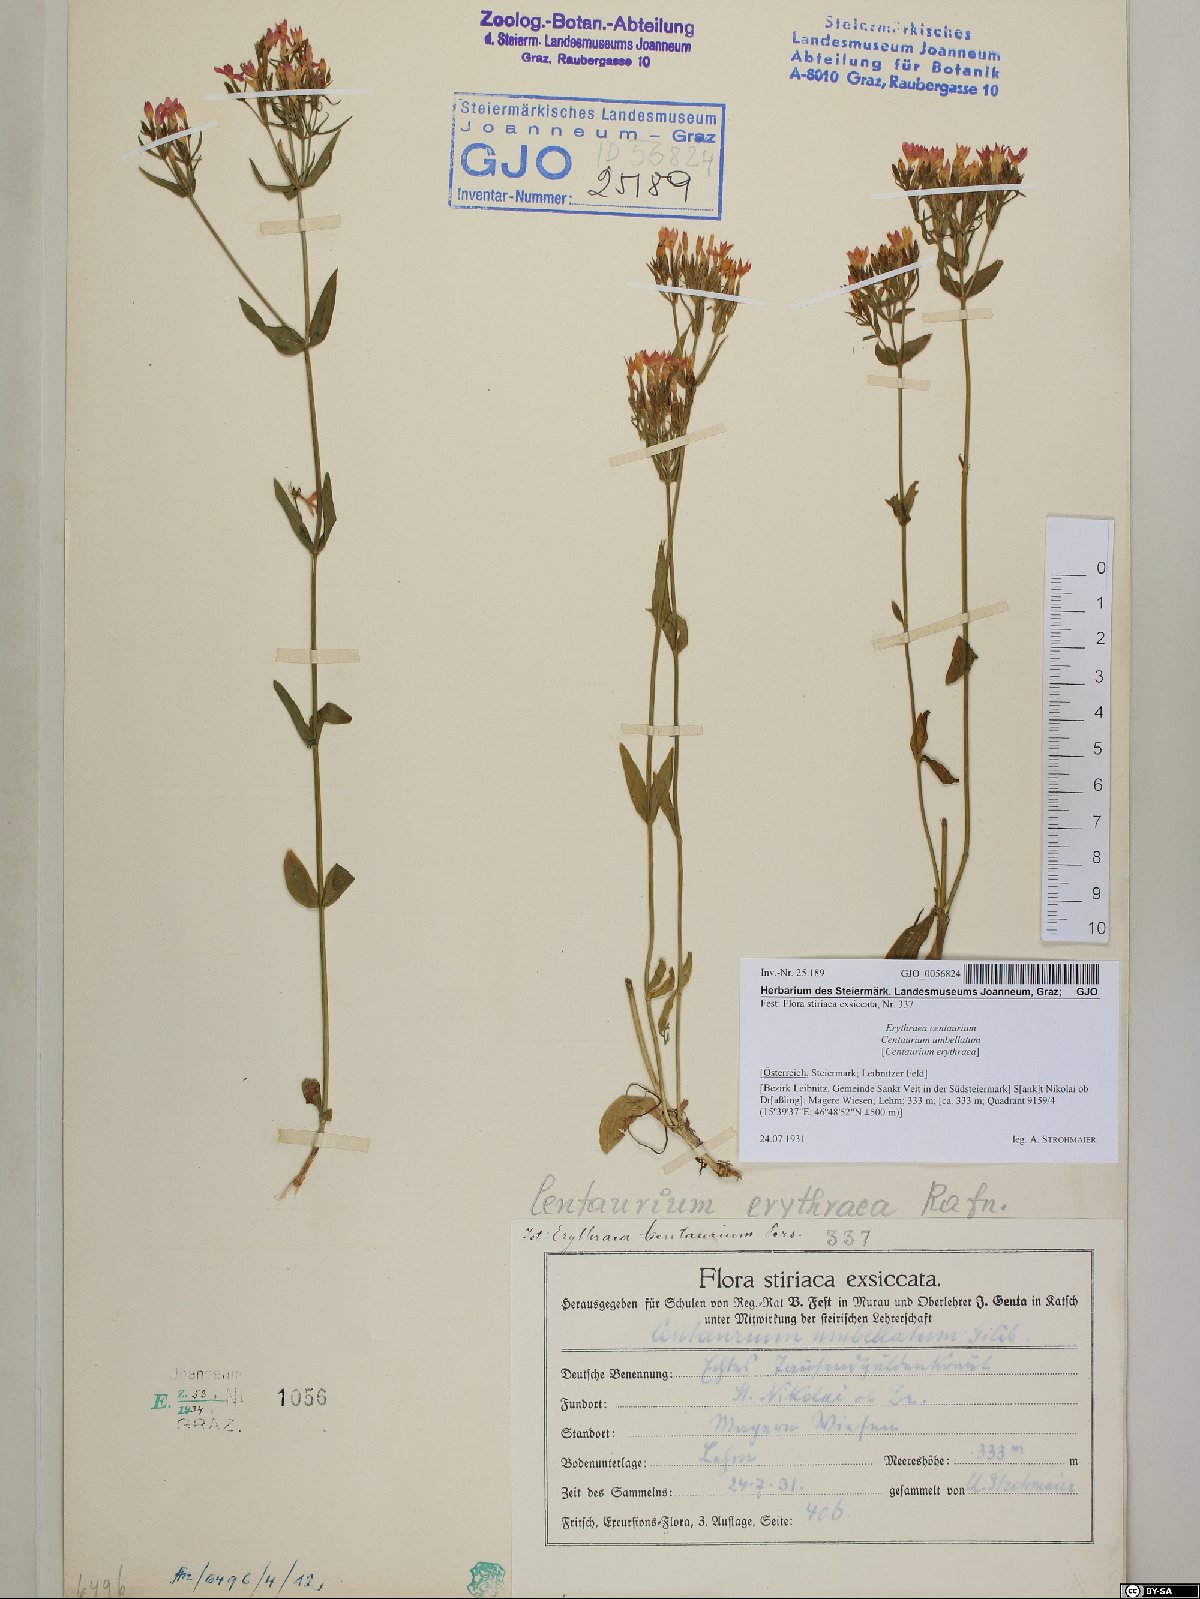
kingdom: Plantae
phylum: Tracheophyta
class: Magnoliopsida
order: Gentianales
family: Gentianaceae
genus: Centaurium
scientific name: Centaurium erythraea
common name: Common centaury
